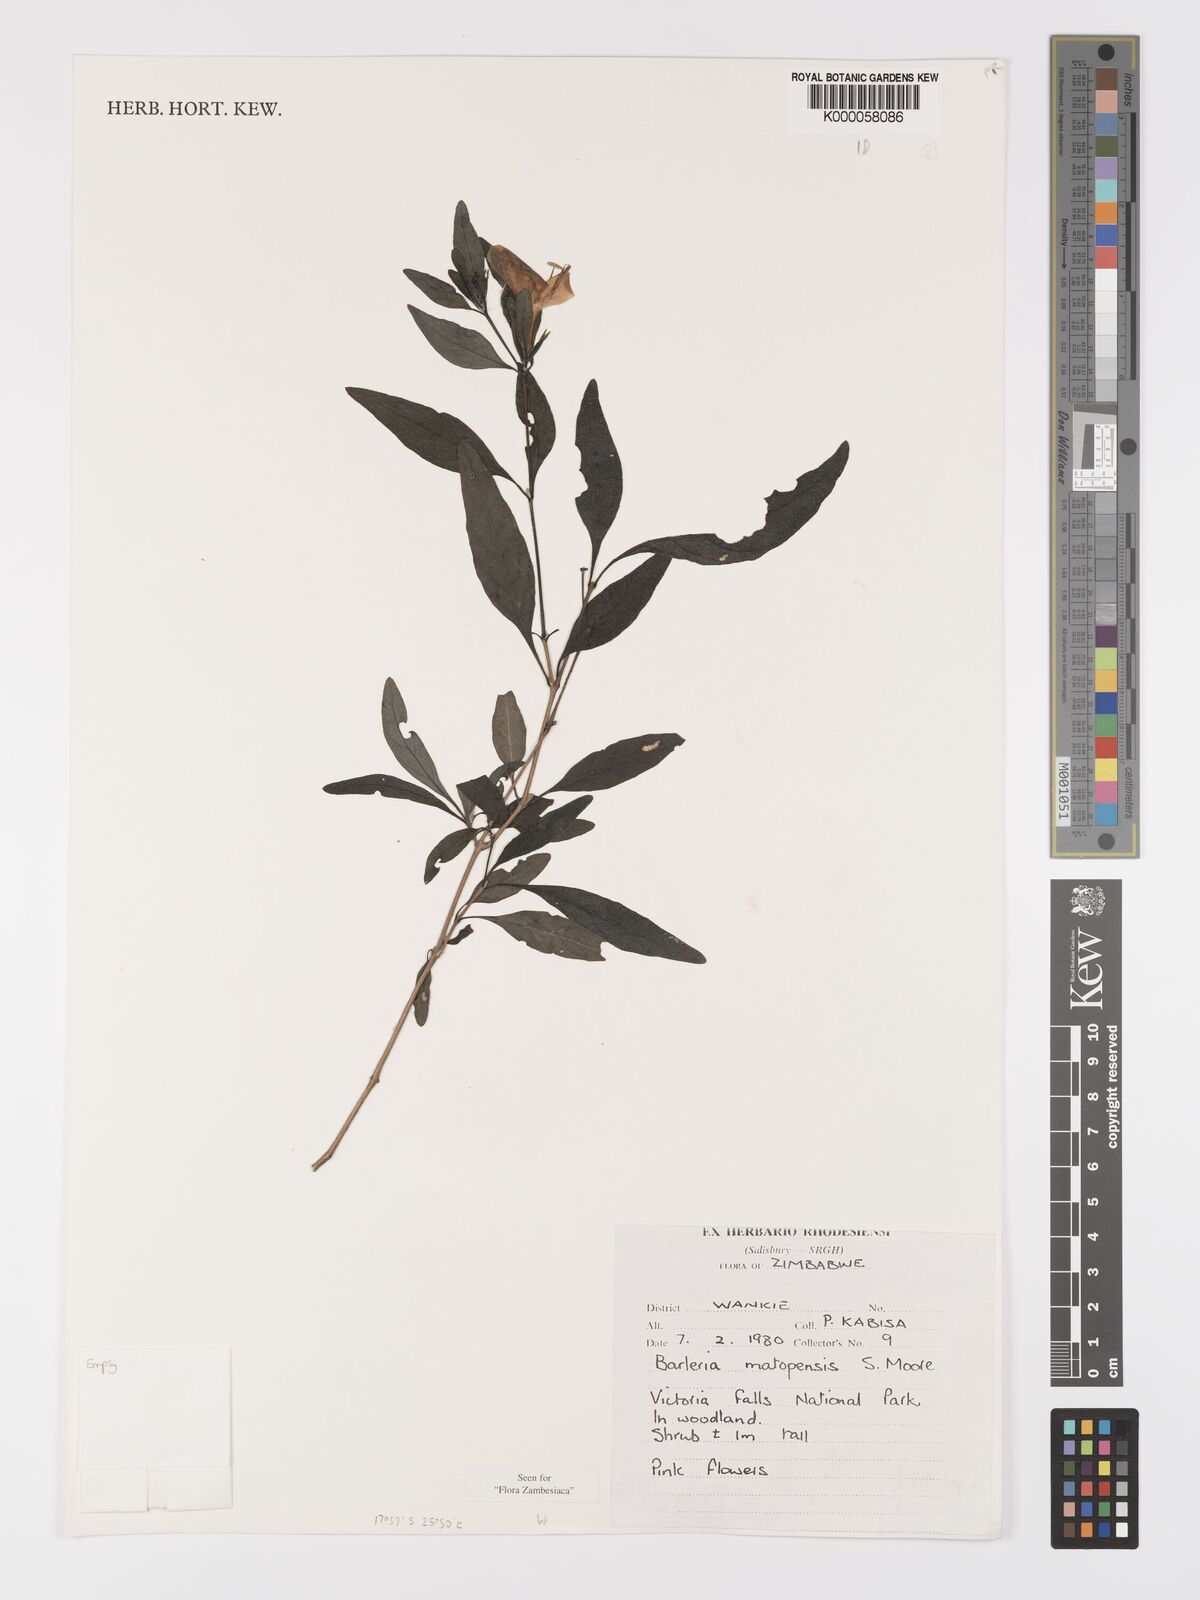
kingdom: Plantae
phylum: Tracheophyta
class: Magnoliopsida
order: Lamiales
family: Acanthaceae
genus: Barleria
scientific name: Barleria matopensis
